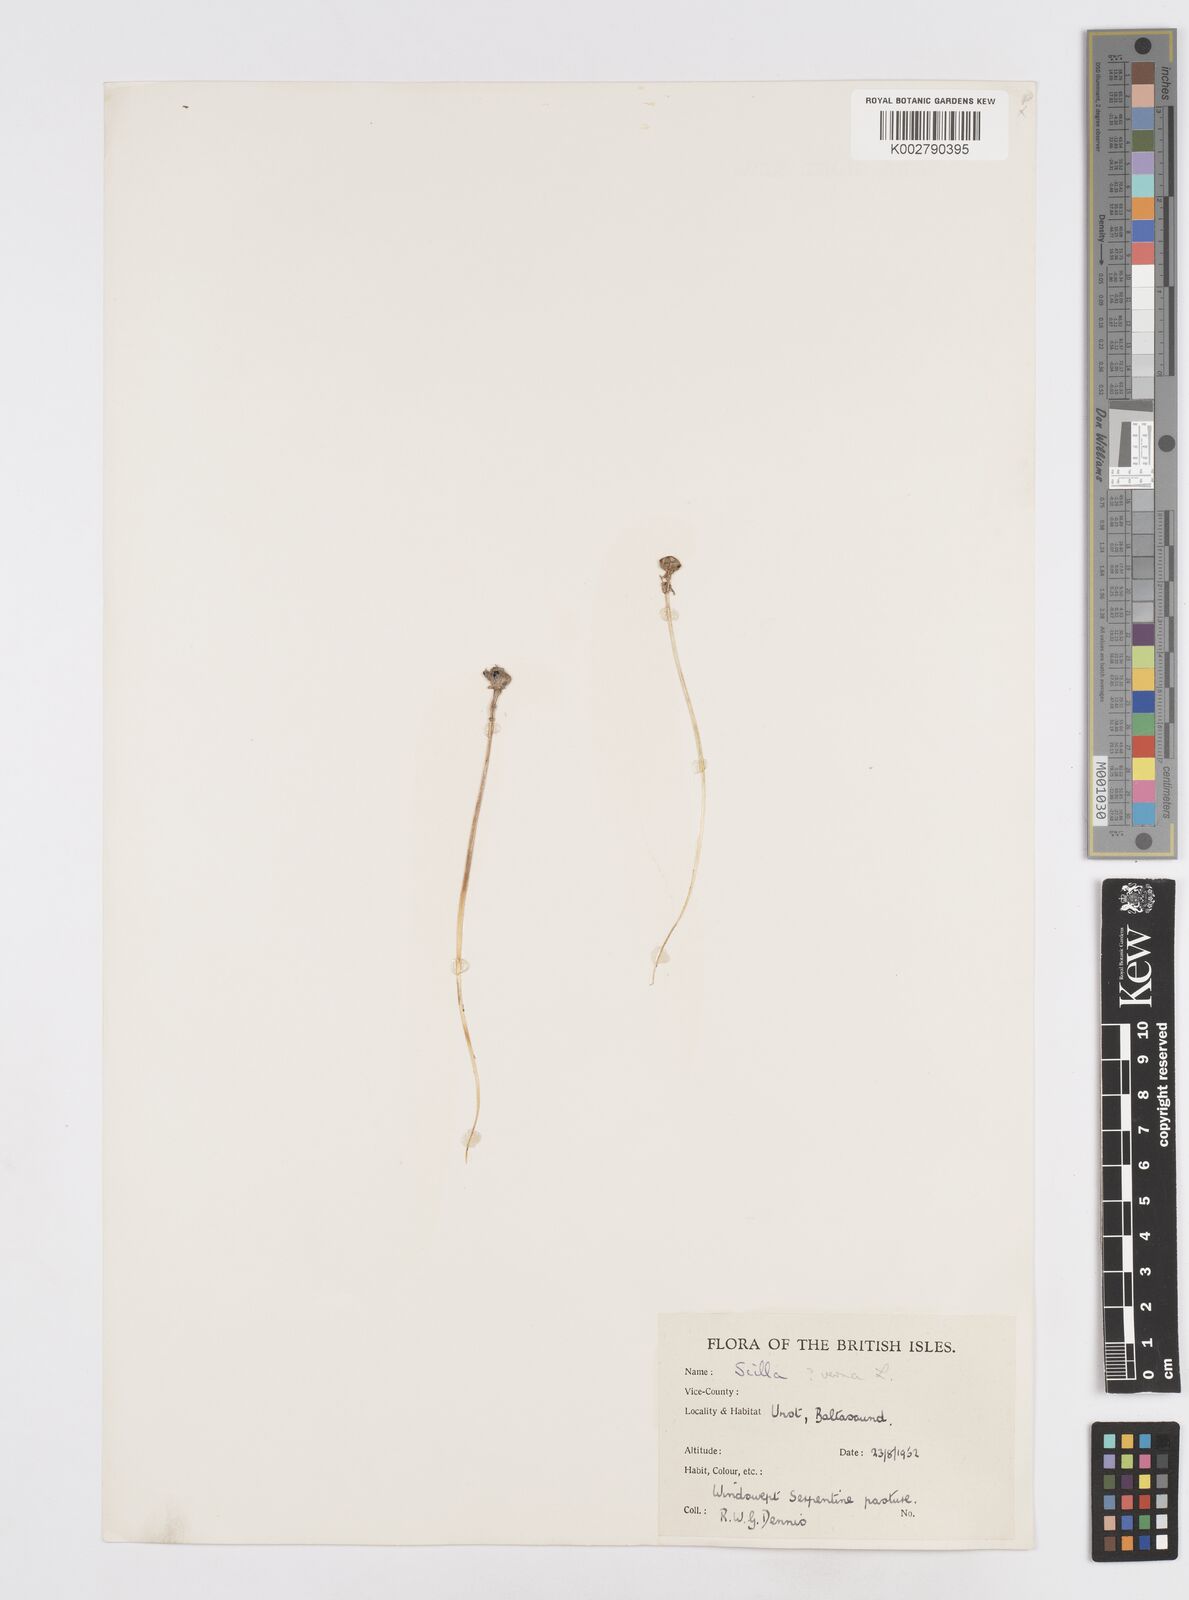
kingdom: Plantae
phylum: Tracheophyta
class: Liliopsida
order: Asparagales
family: Asparagaceae
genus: Scilla
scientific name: Scilla verna
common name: Spring squill
